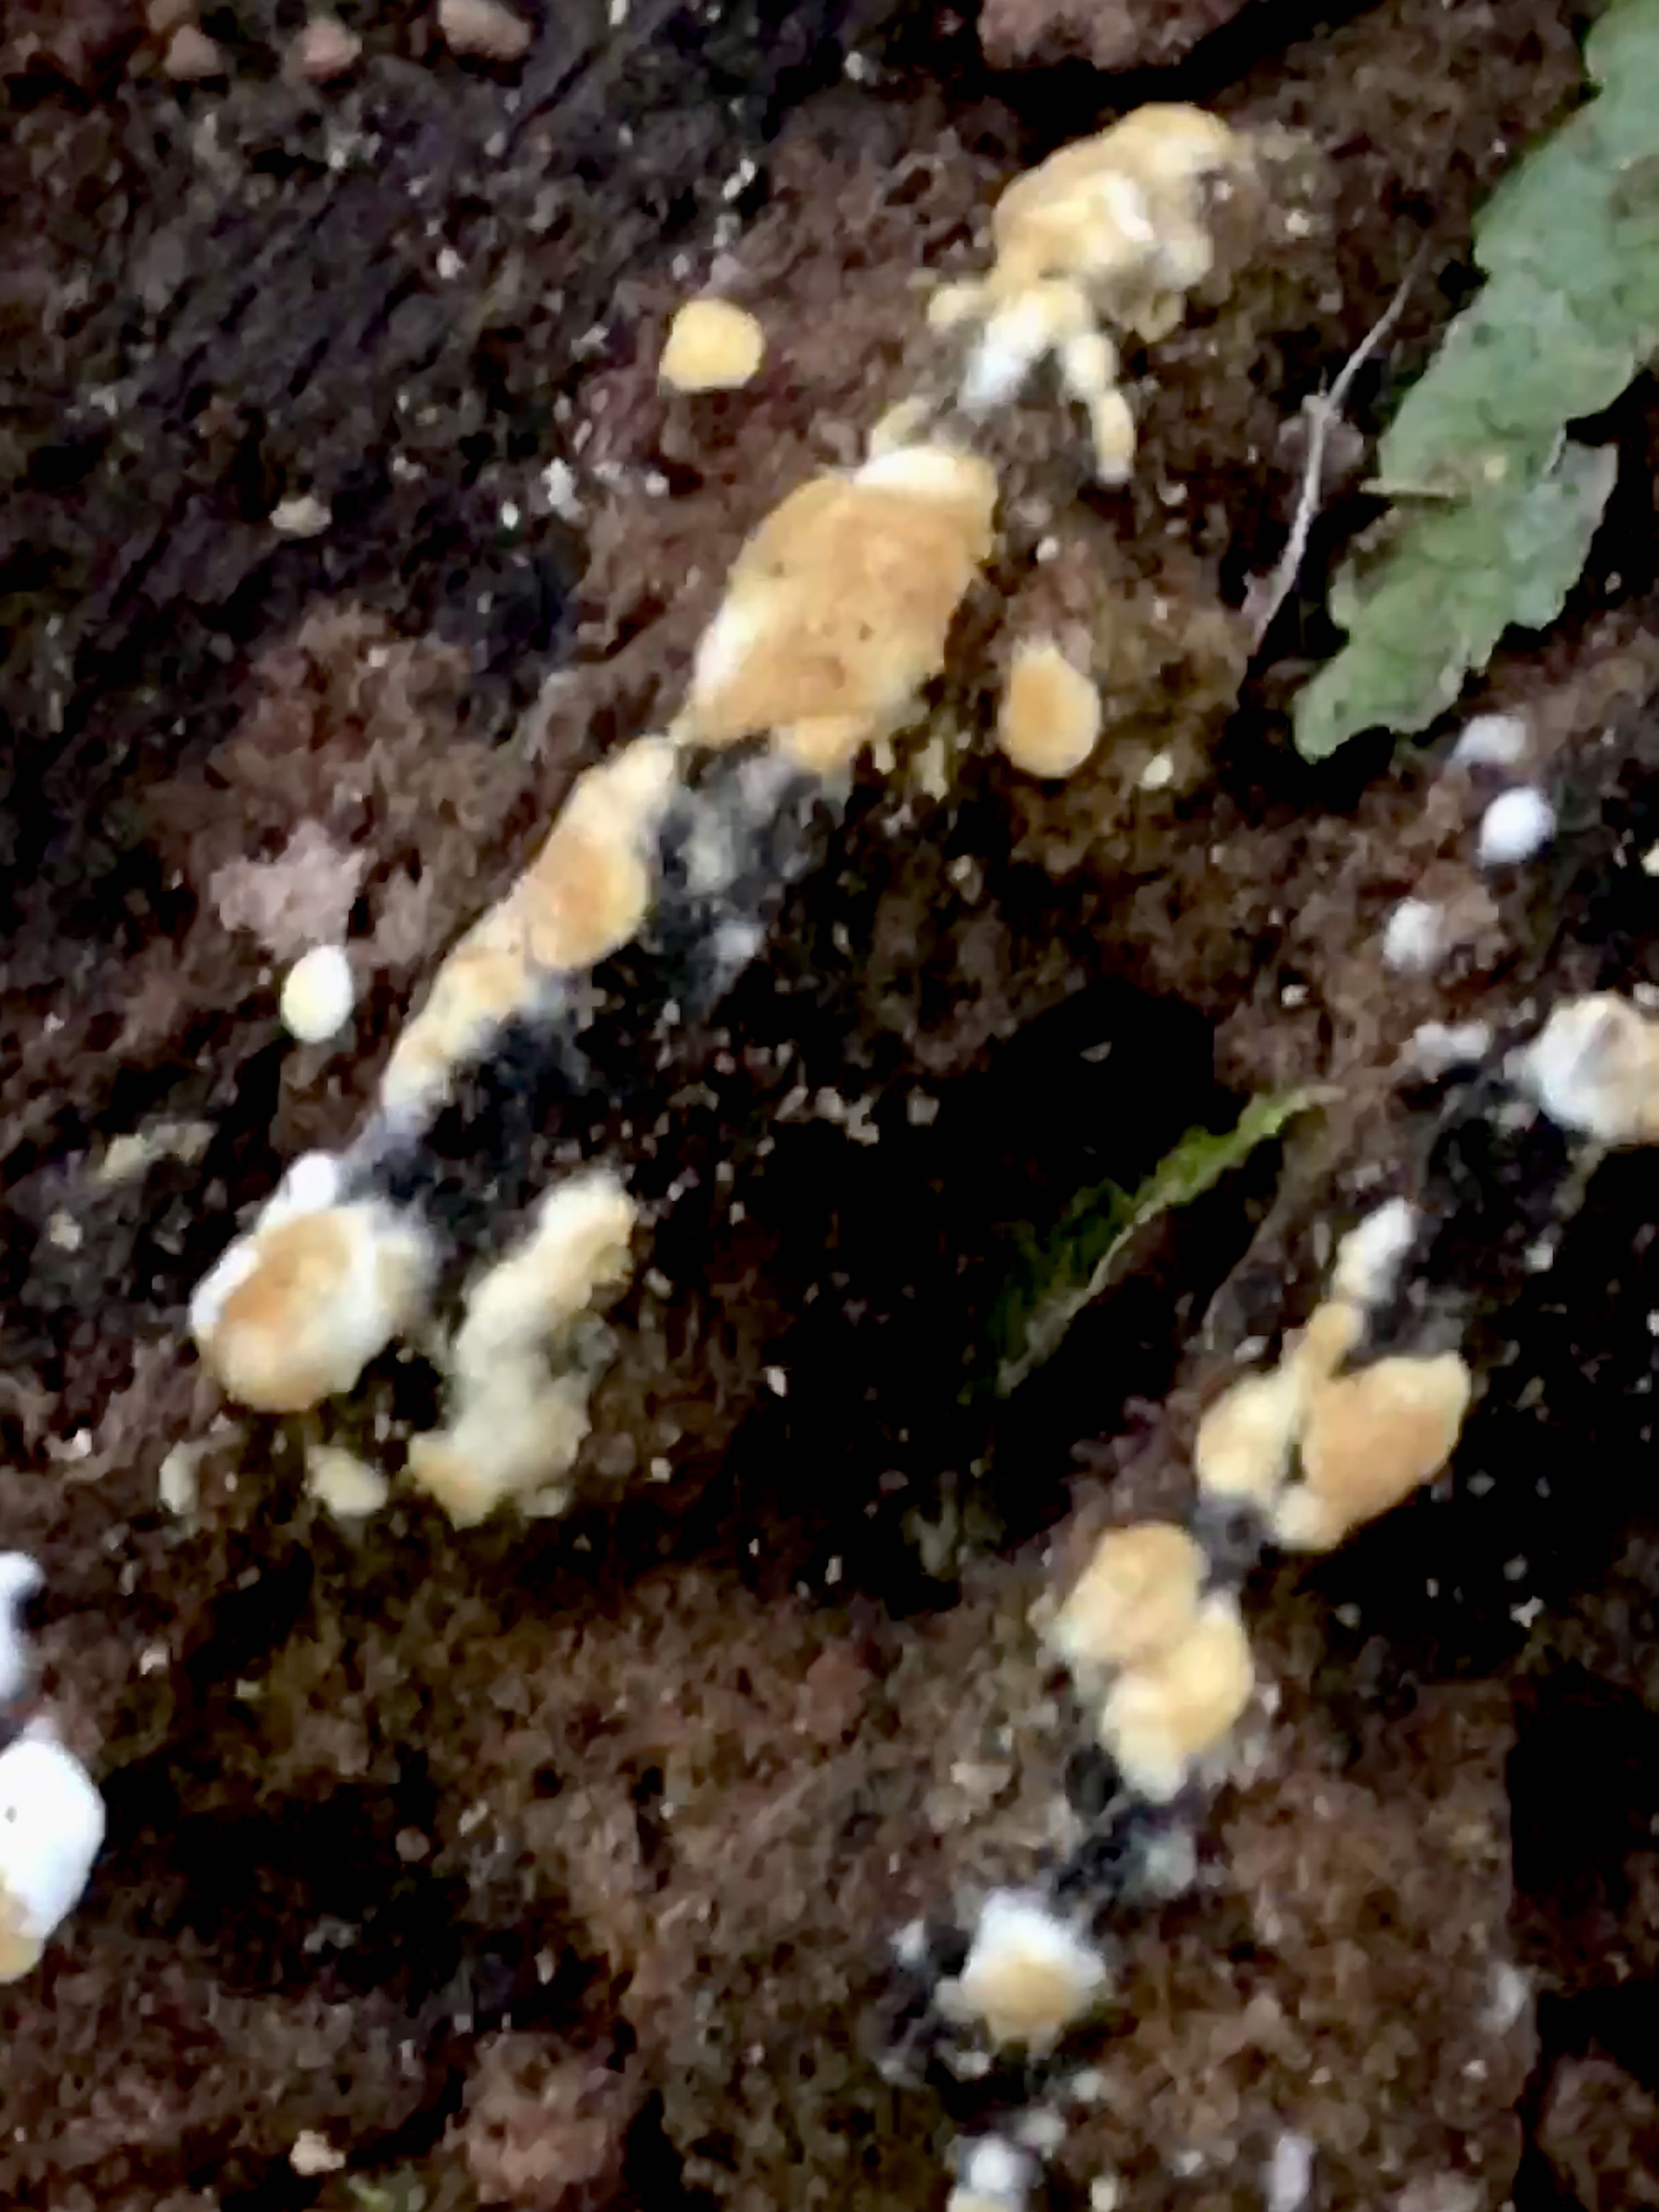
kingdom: Fungi
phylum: Basidiomycota
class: Agaricomycetes
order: Cantharellales
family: Botryobasidiaceae
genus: Botryobasidium
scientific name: Botryobasidium aureum
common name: gylden spindhinde
